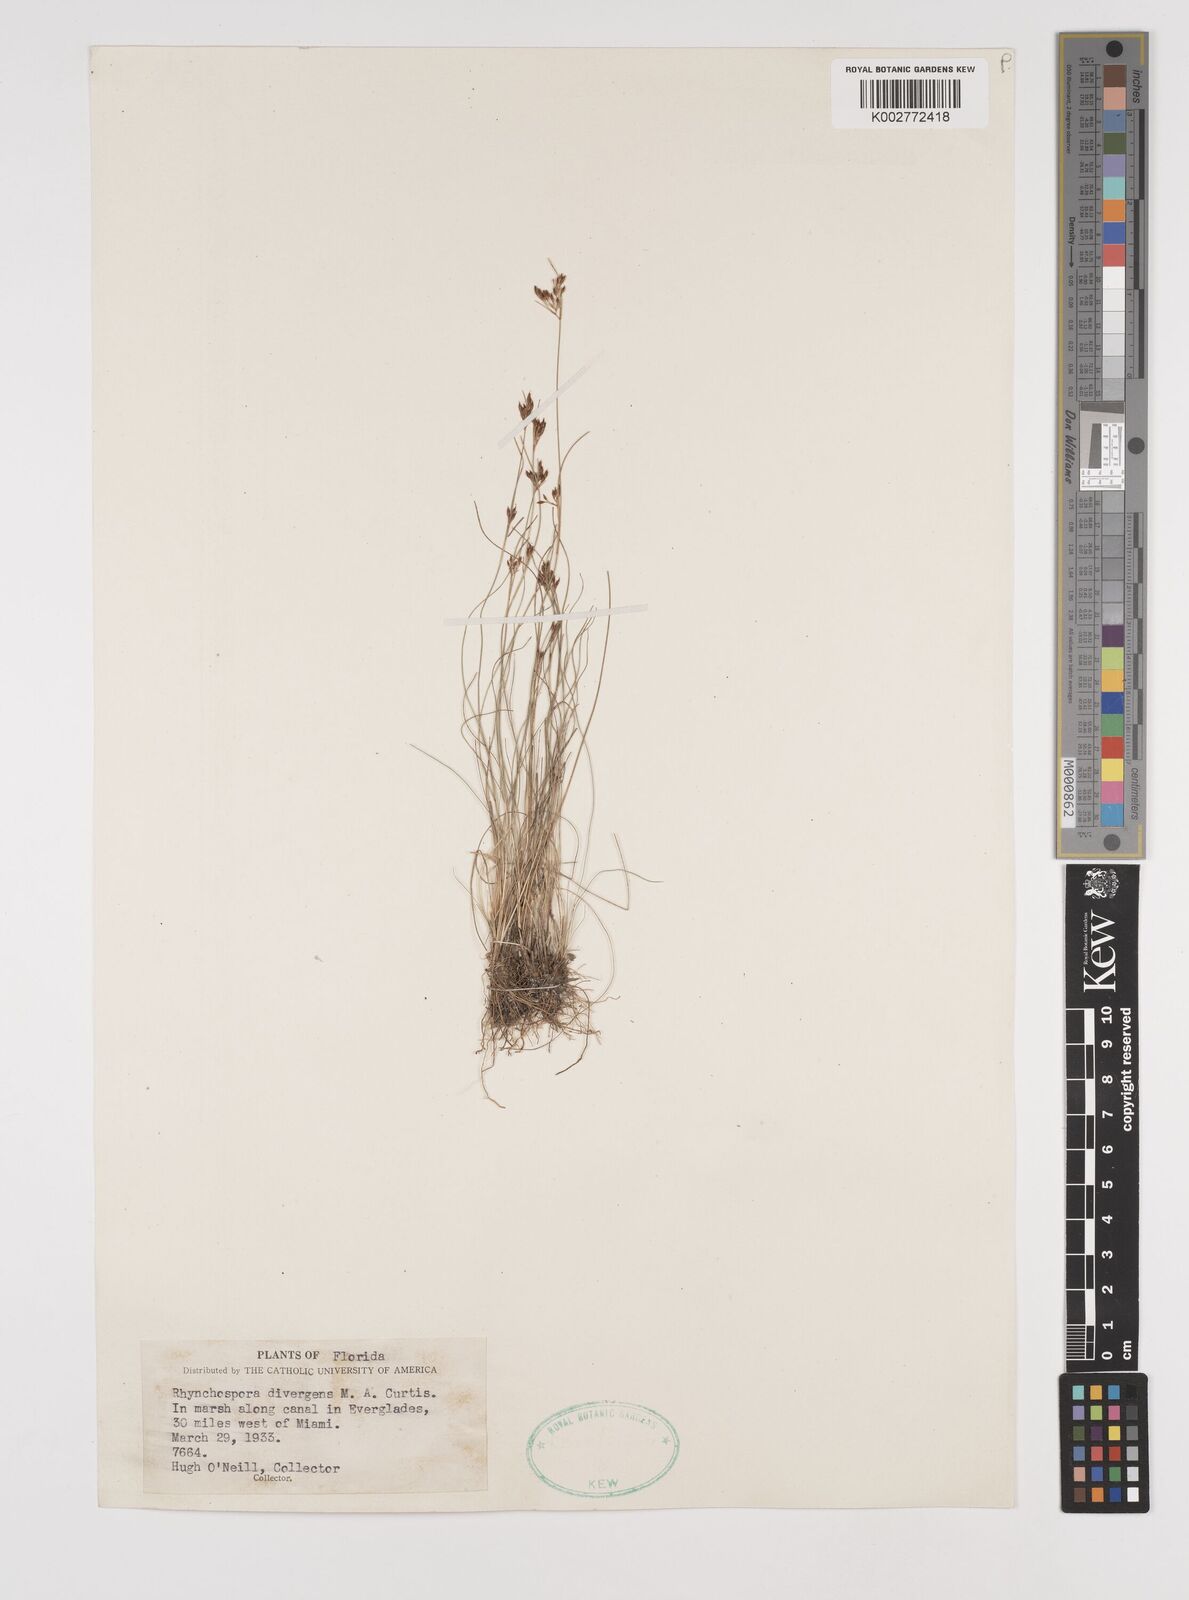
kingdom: Plantae
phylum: Tracheophyta
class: Liliopsida
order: Poales
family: Cyperaceae
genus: Rhynchospora
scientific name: Rhynchospora divergens
